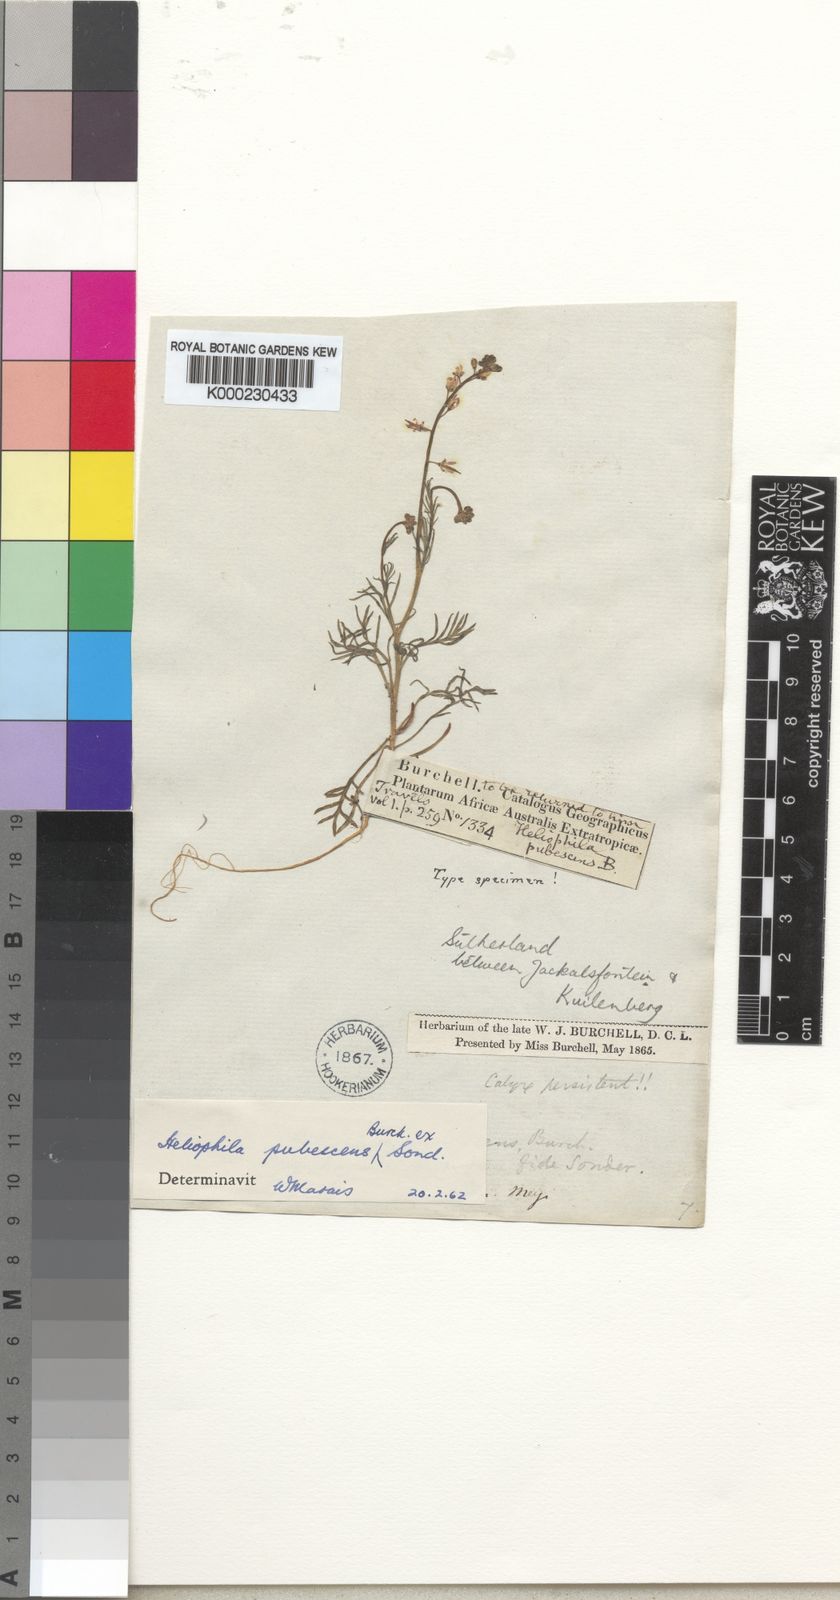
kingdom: Plantae
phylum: Tracheophyta
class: Magnoliopsida
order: Brassicales
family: Brassicaceae
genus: Heliophila
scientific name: Heliophila pubescens
